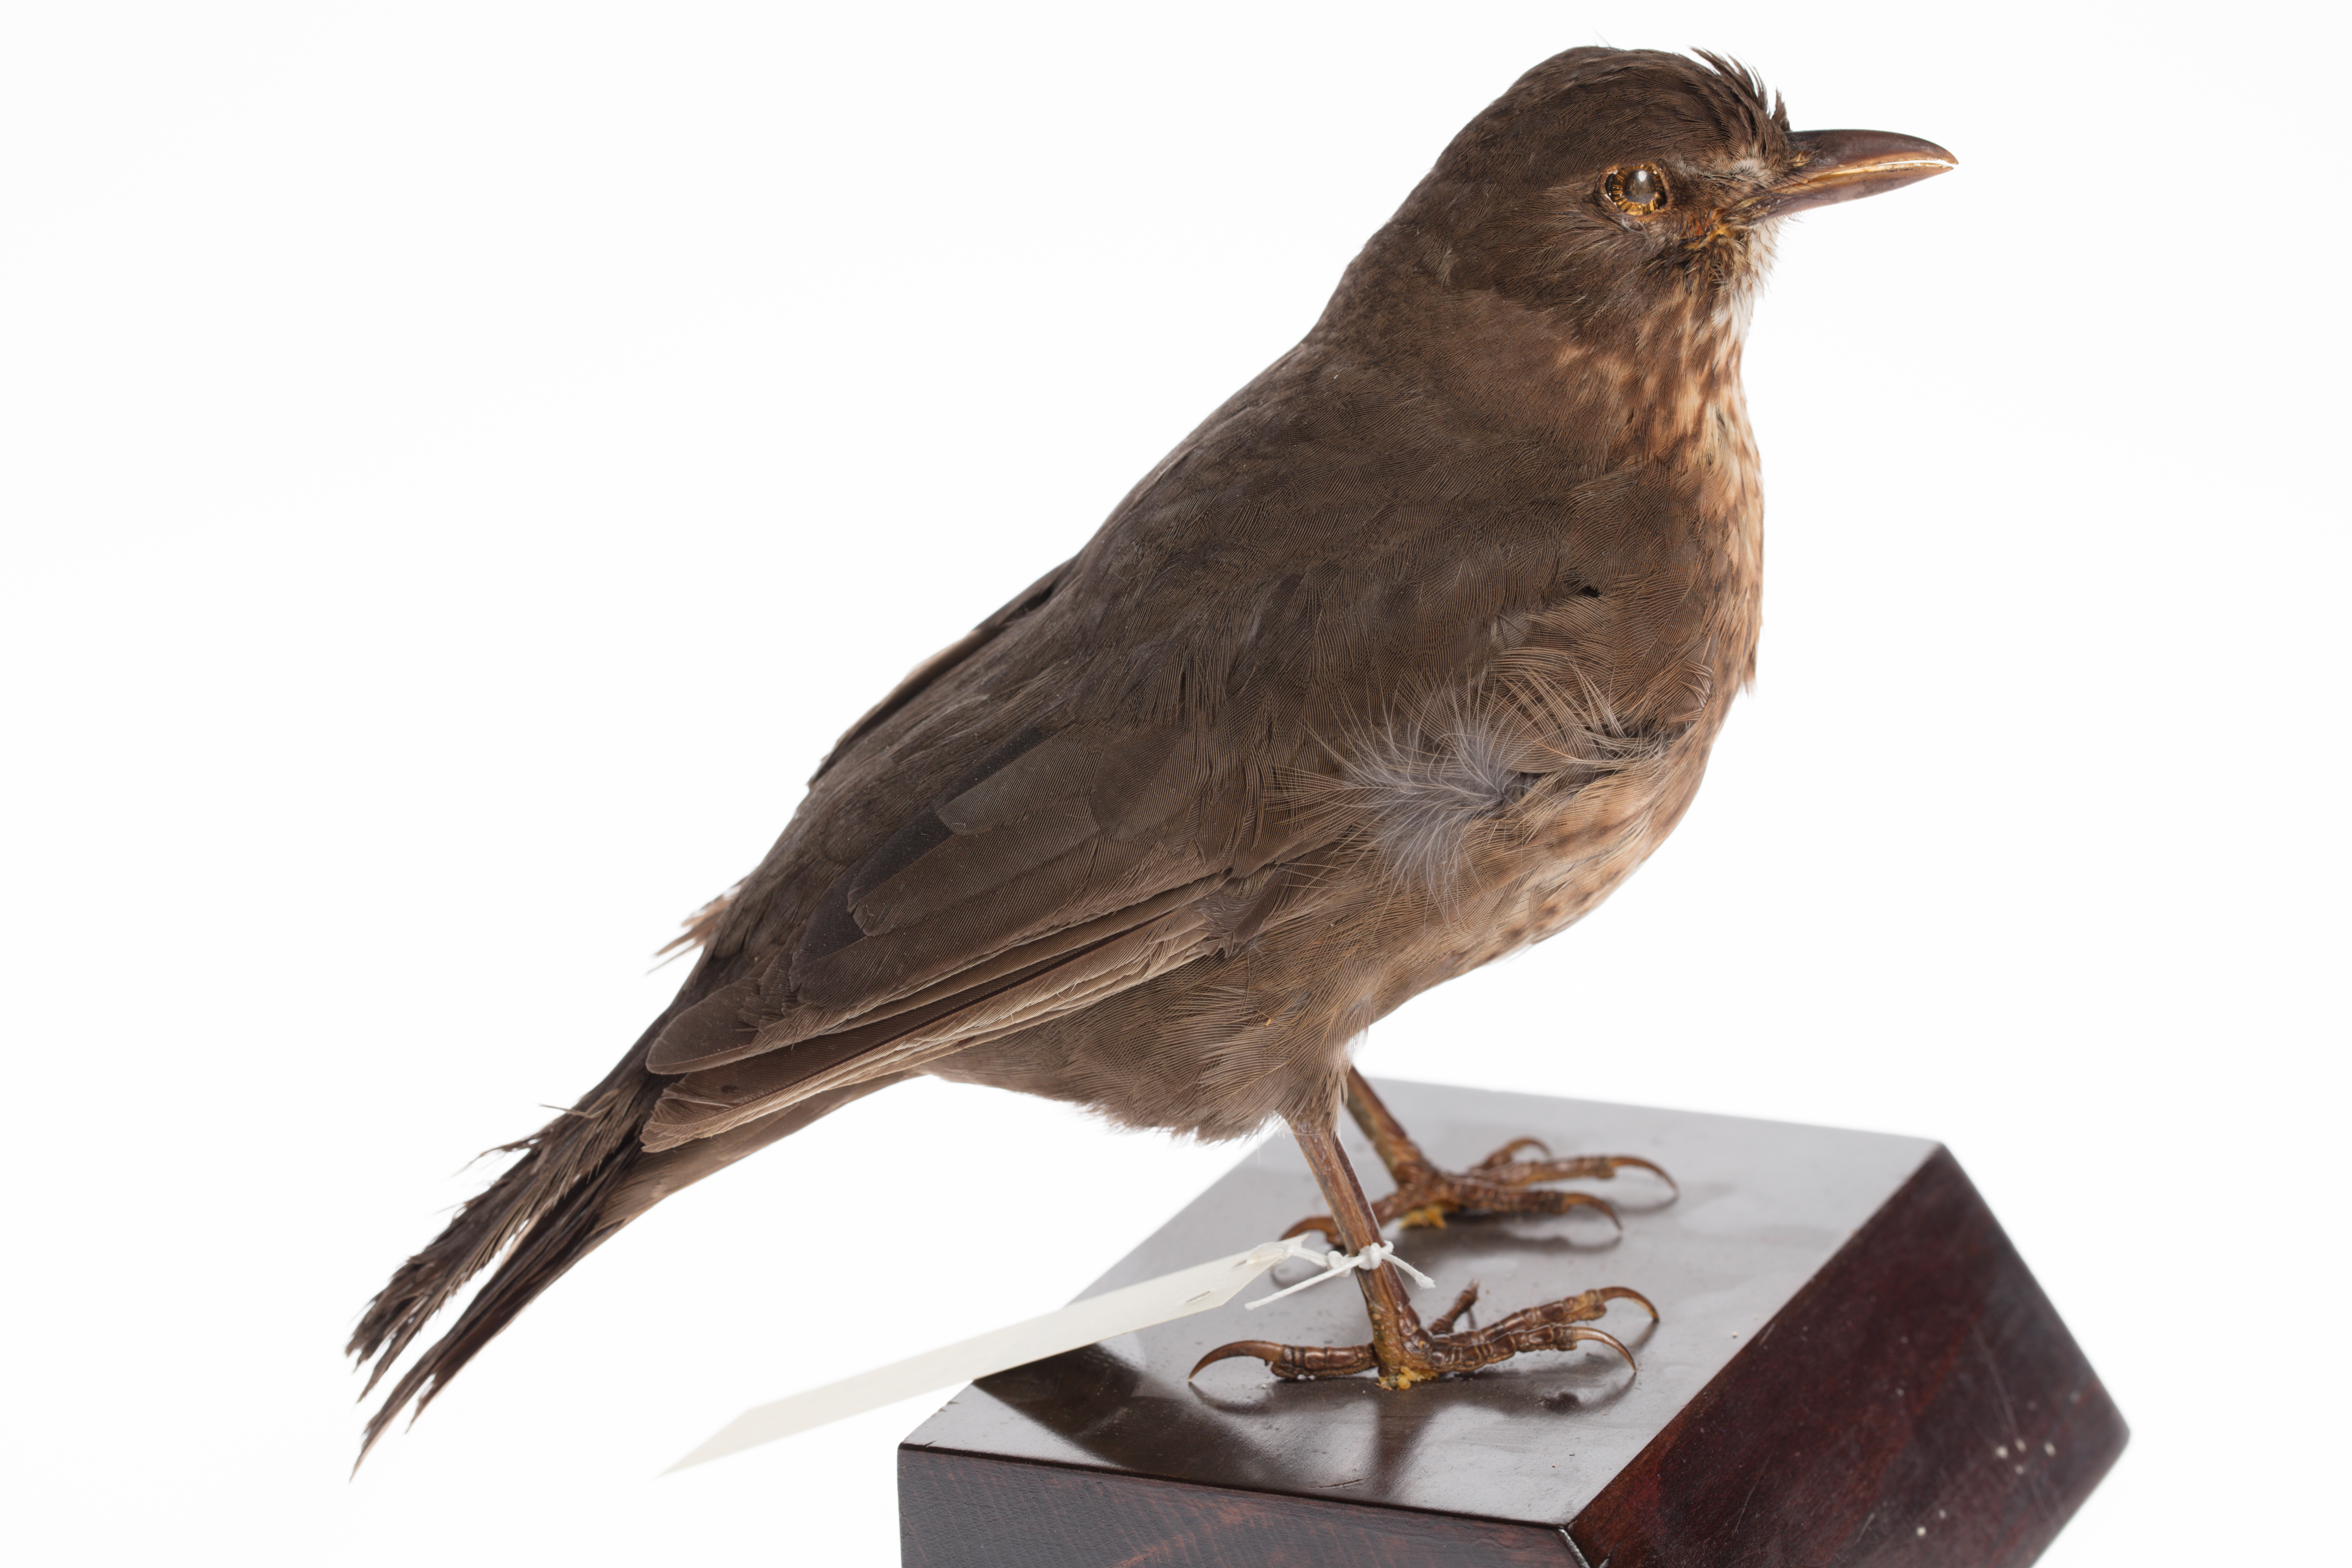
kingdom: Animalia
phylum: Chordata
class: Aves
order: Passeriformes
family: Turdidae
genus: Turdus
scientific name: Turdus merula
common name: Common blackbird
